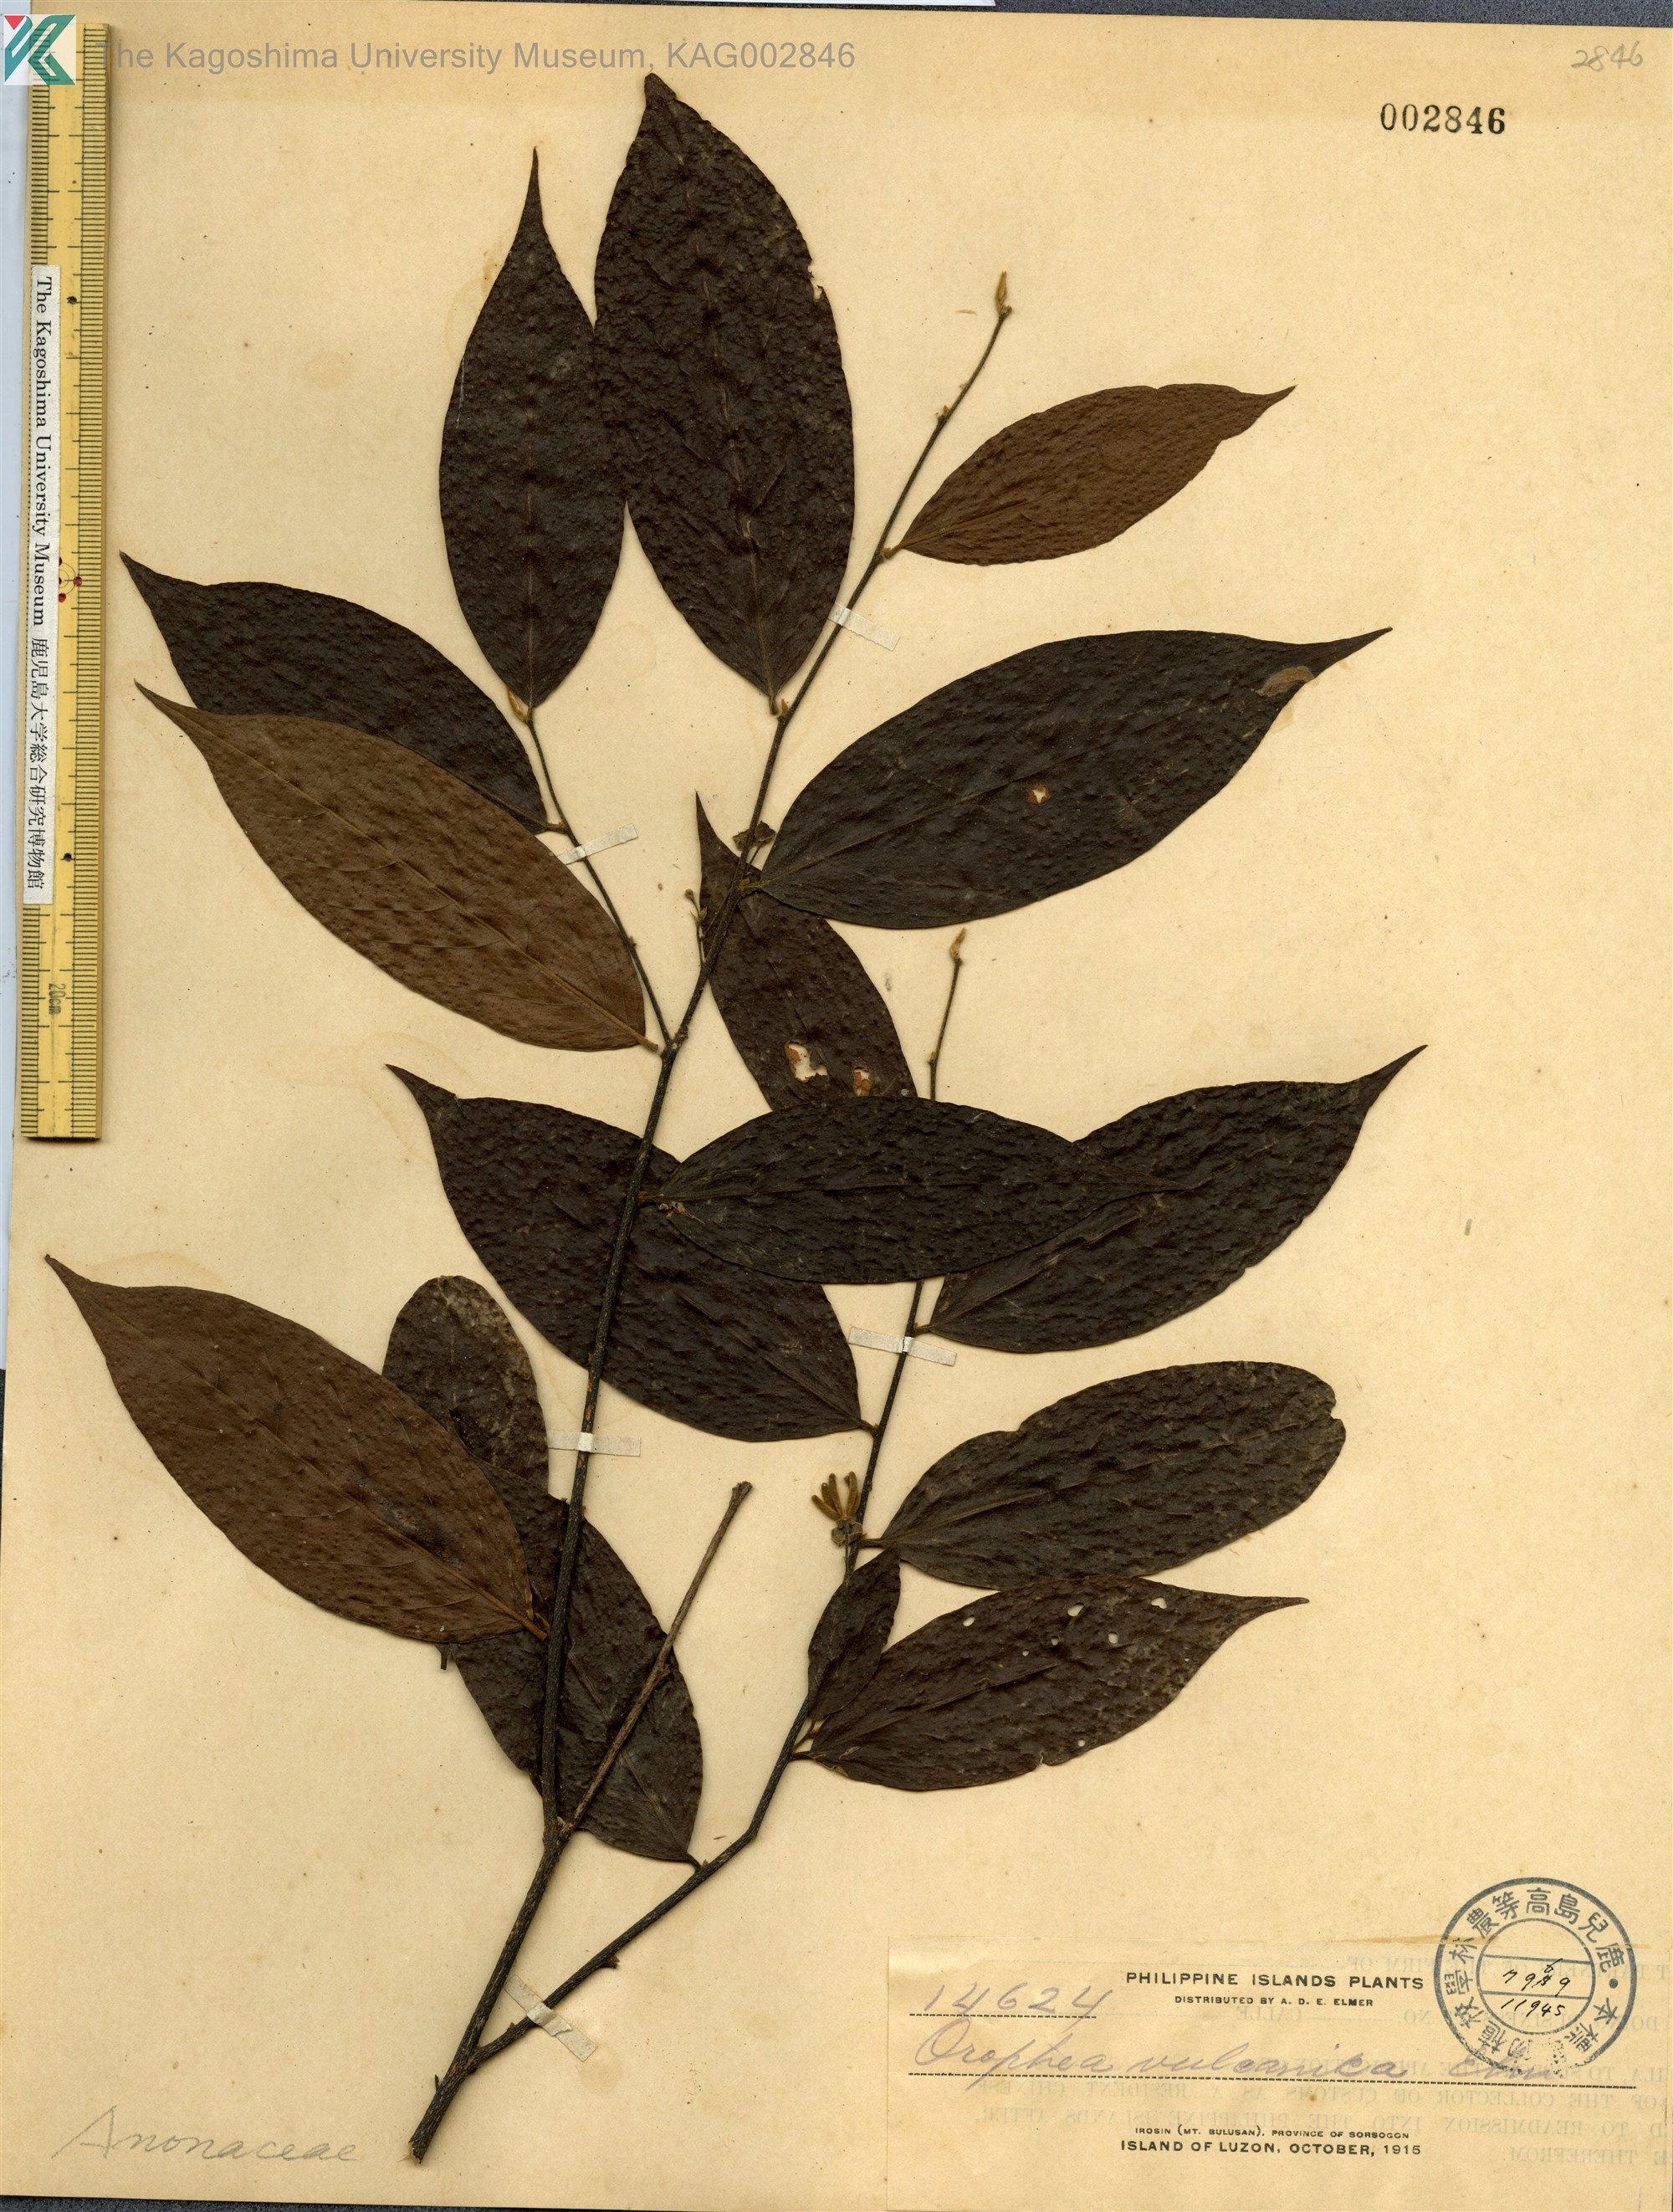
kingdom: Plantae
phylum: Tracheophyta
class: Magnoliopsida
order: Magnoliales
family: Annonaceae
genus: Orophea
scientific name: Orophea cumingiana
